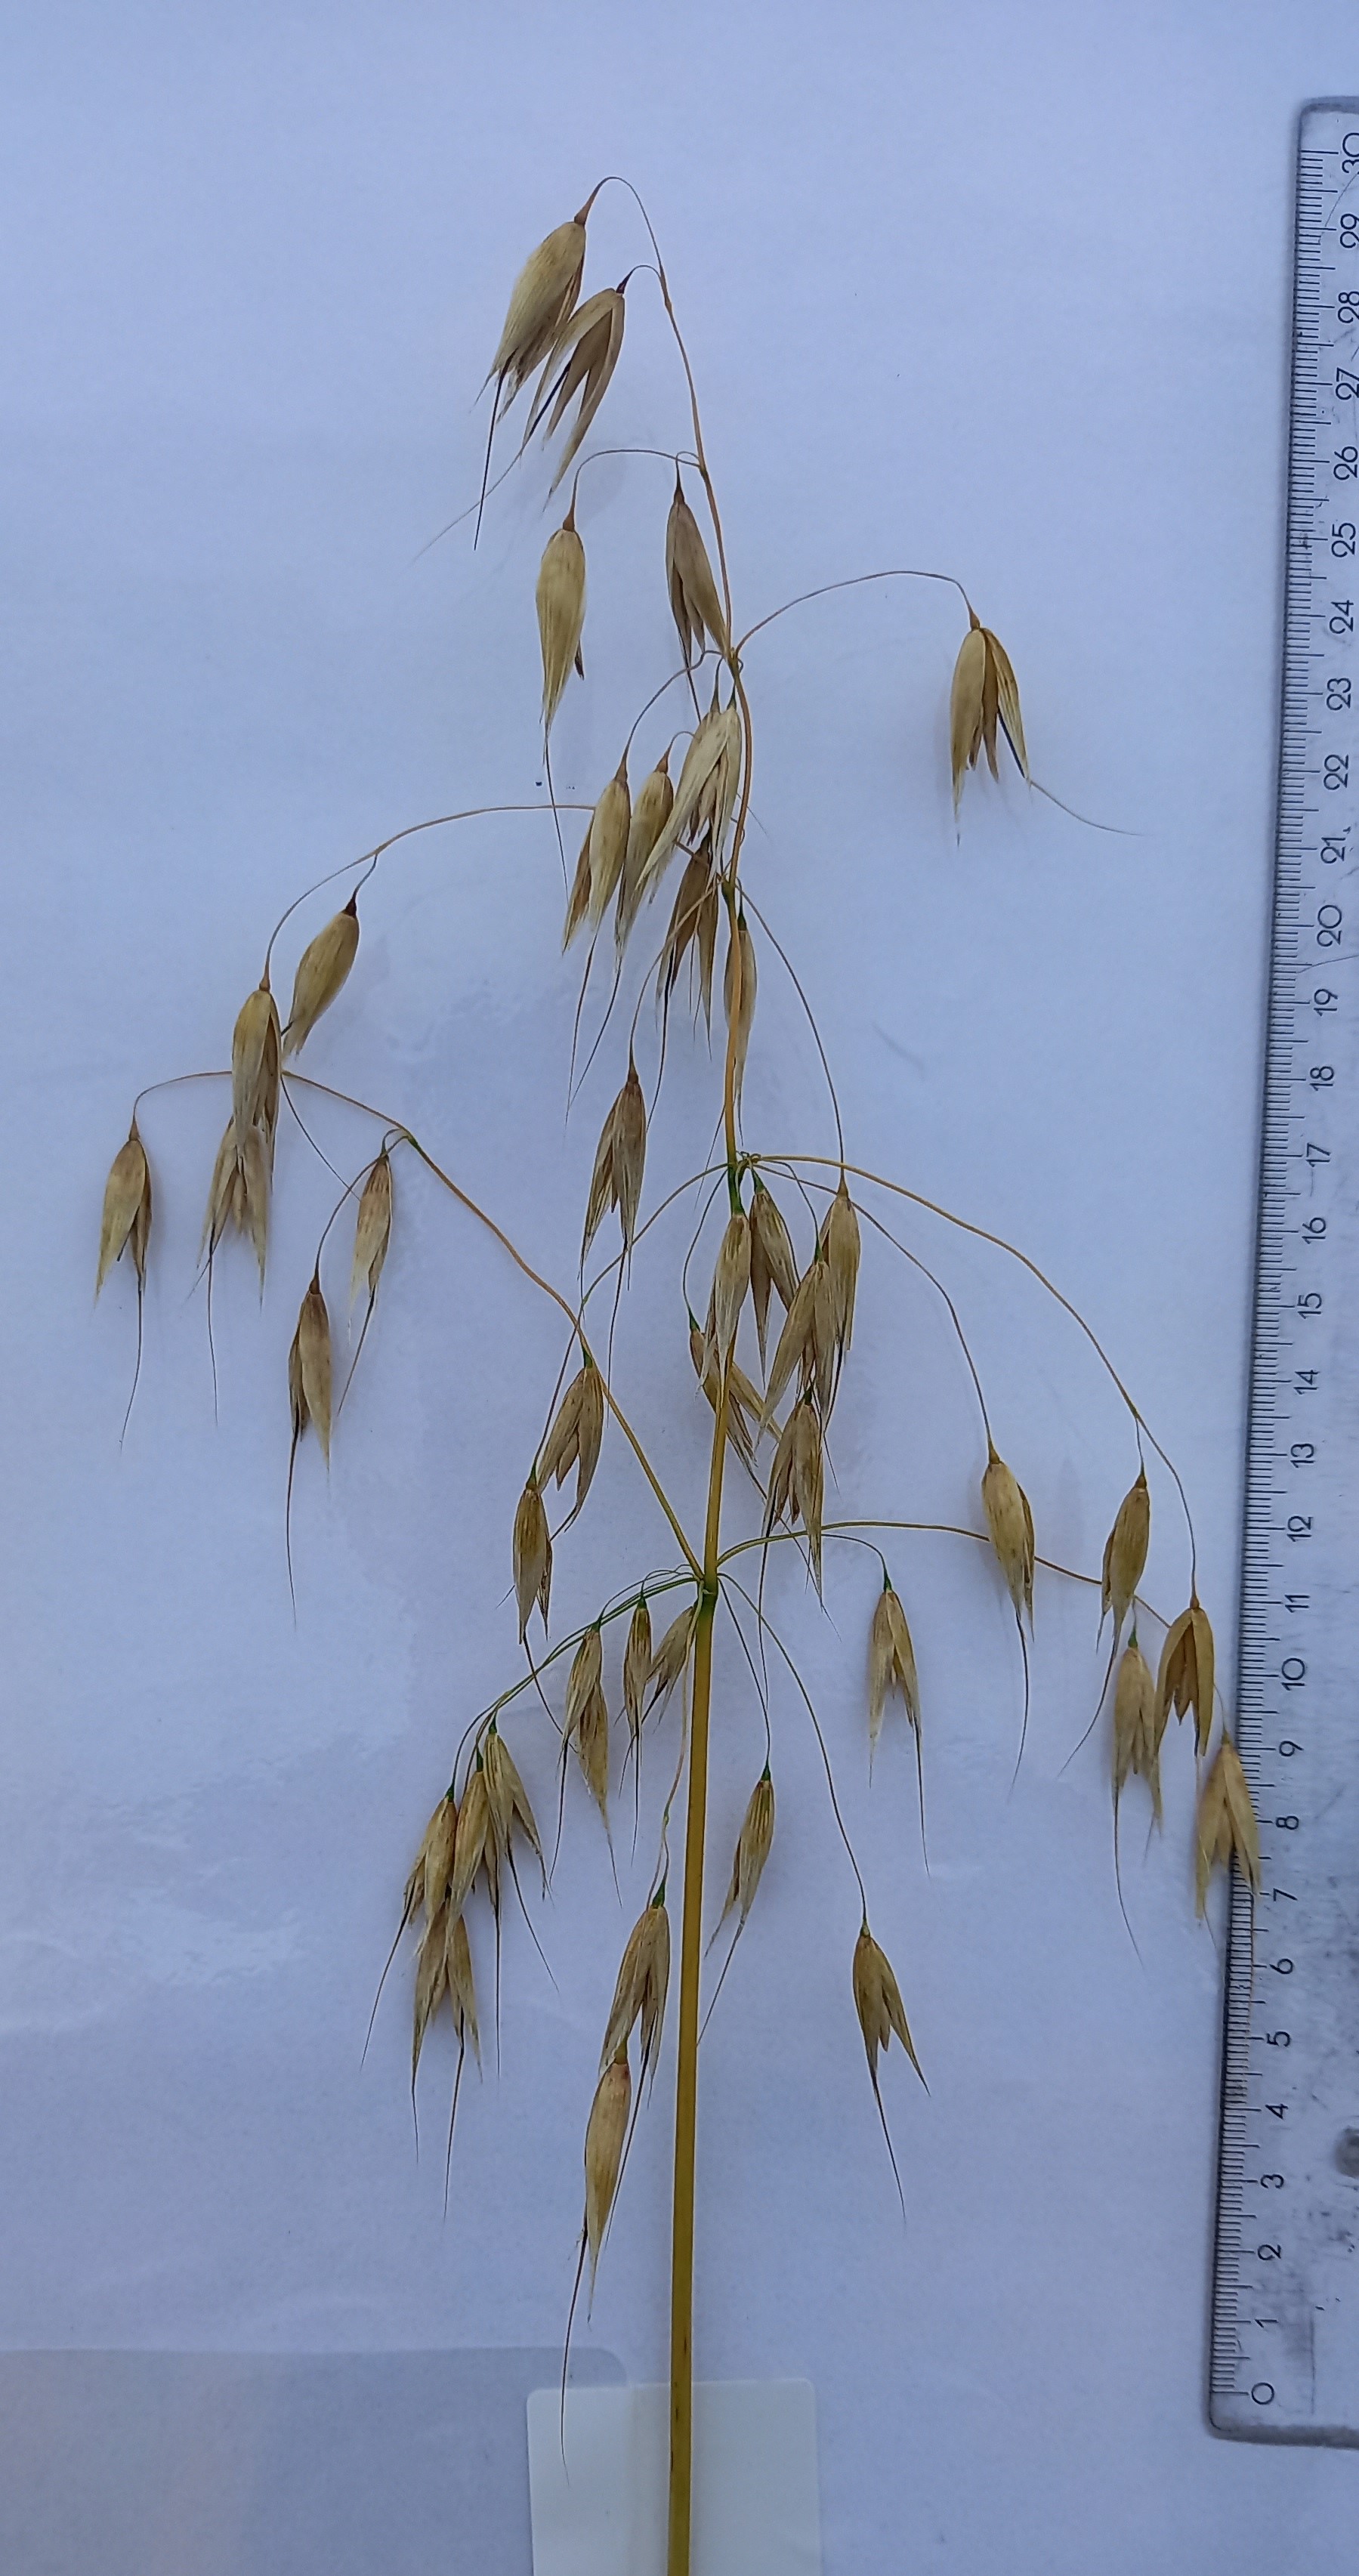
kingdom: Plantae
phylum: Tracheophyta
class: Liliopsida
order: Poales
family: Poaceae
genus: Avena
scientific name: Avena sativa
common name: Oat
